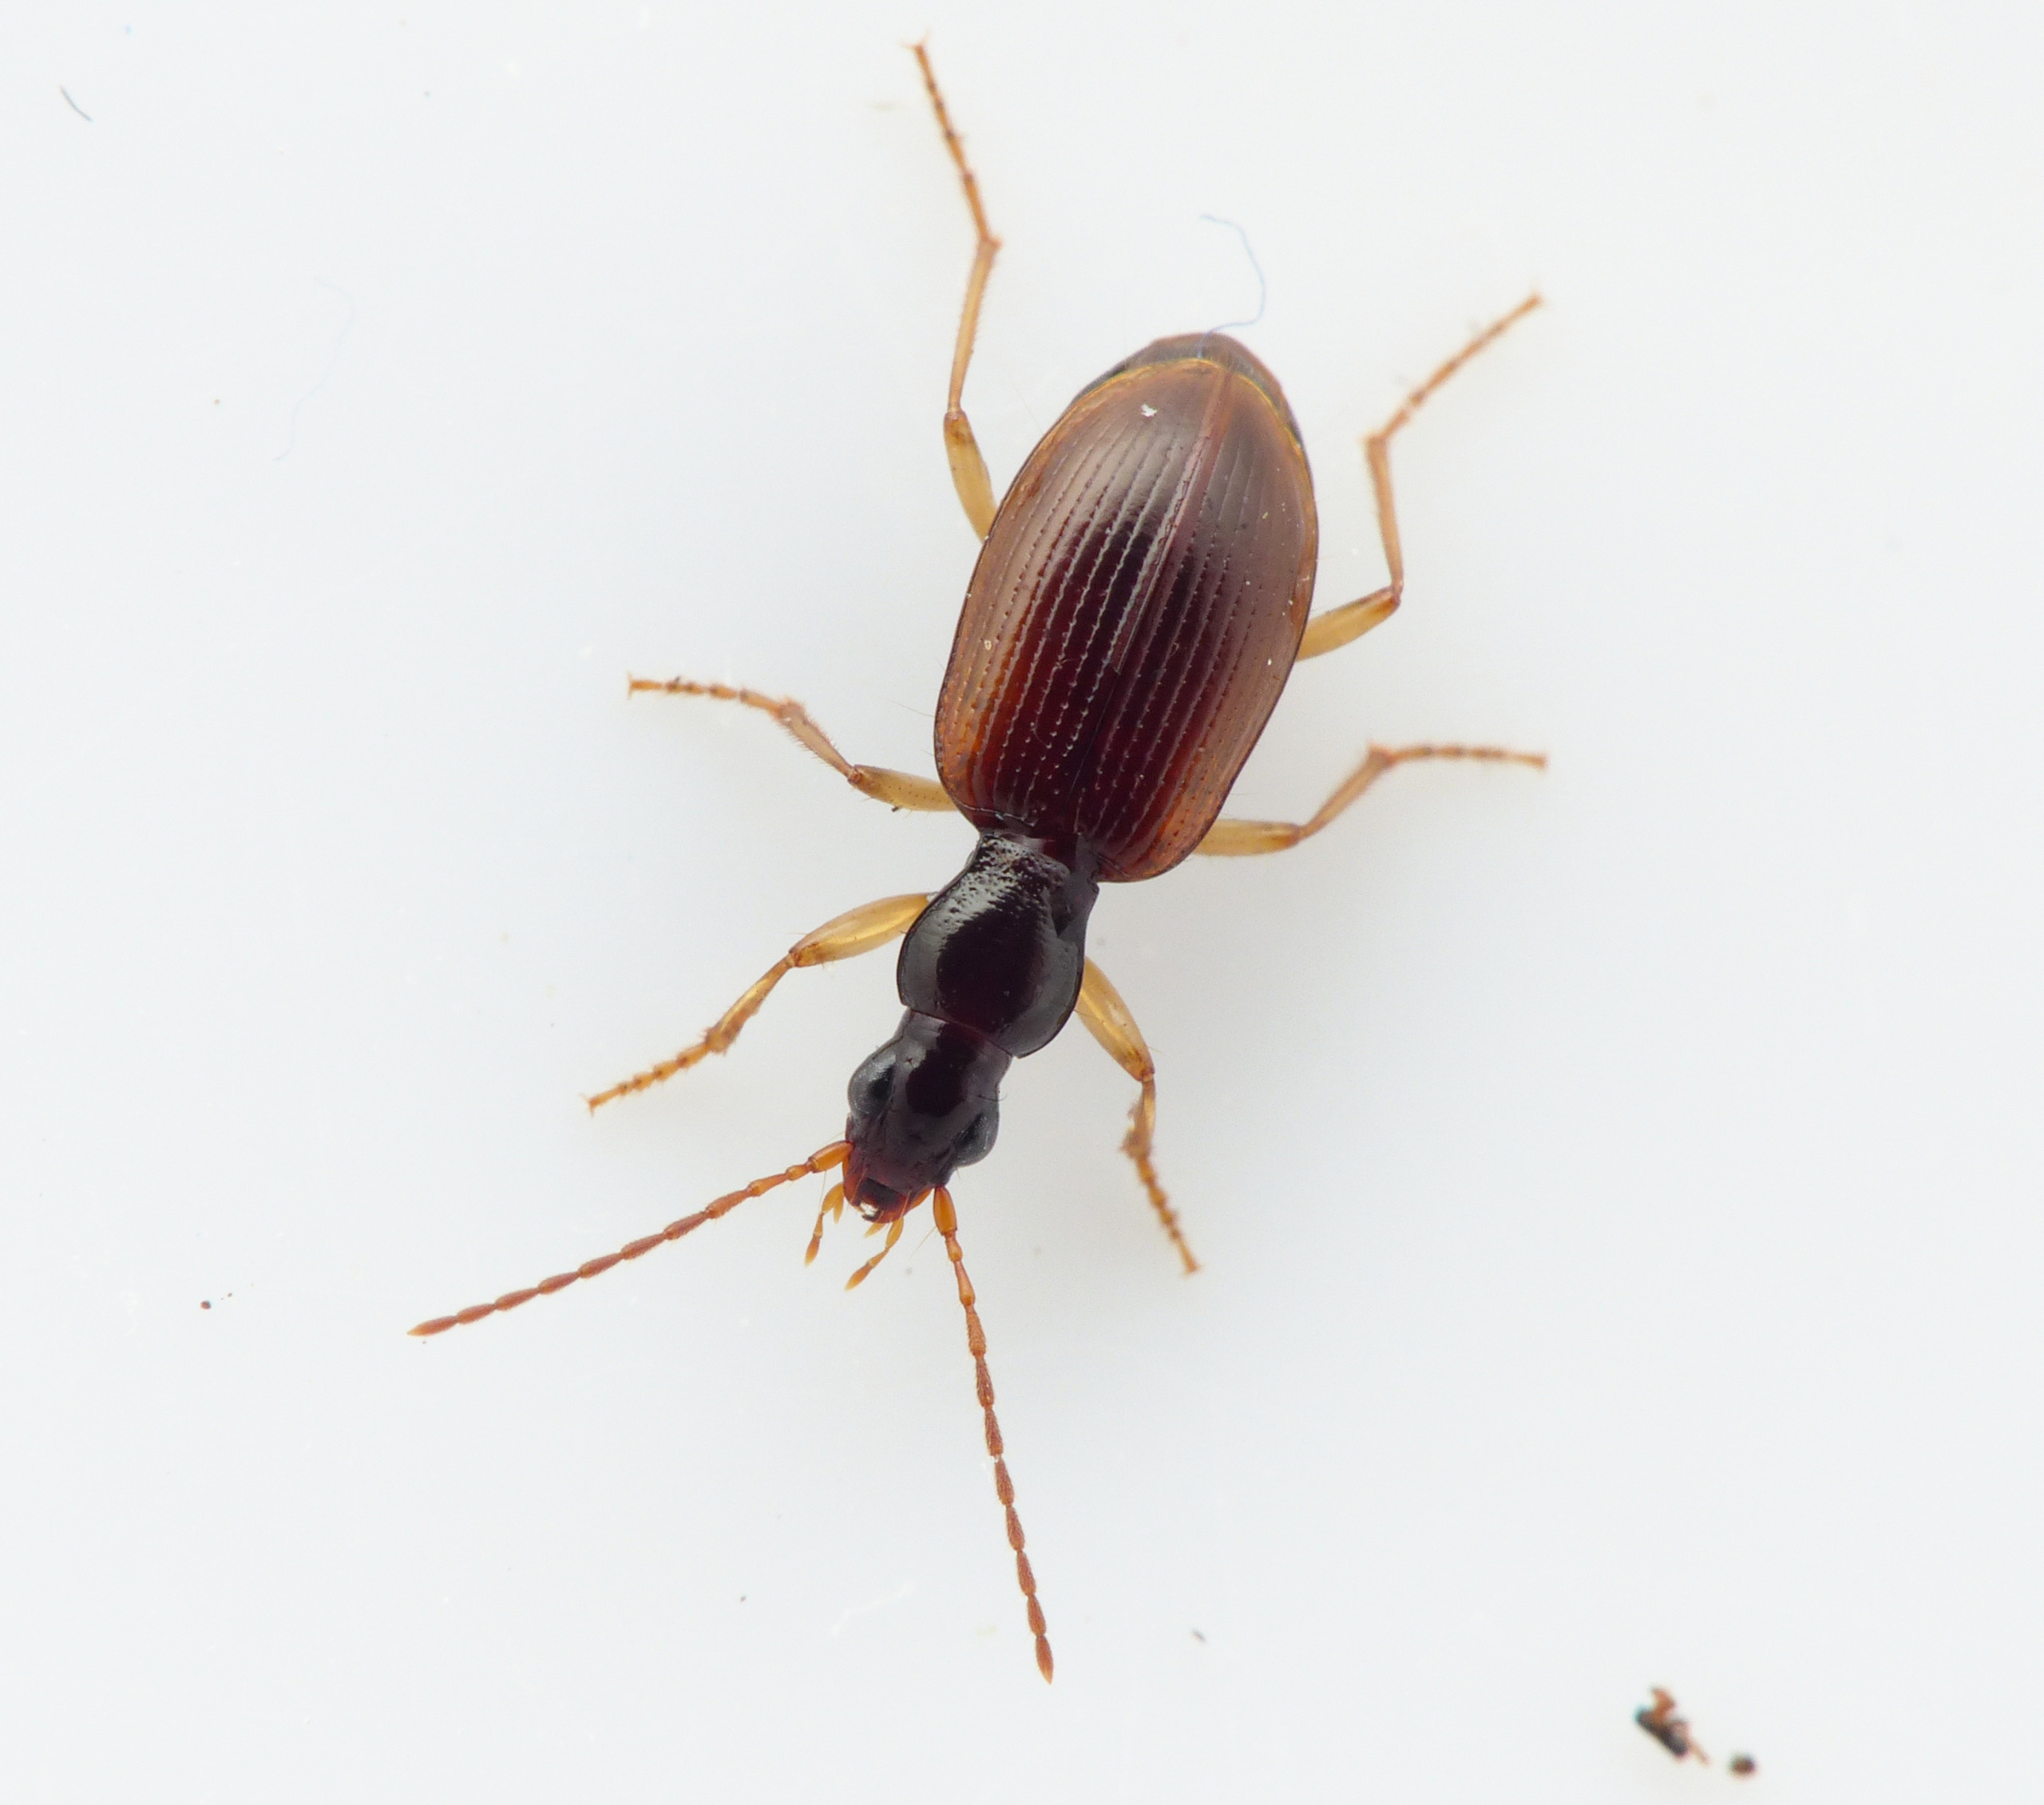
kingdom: Animalia
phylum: Arthropoda
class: Insecta
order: Coleoptera
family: Carabidae
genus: Oxypselaphus
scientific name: Oxypselaphus obscurus
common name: Rødbrun kvikløber
